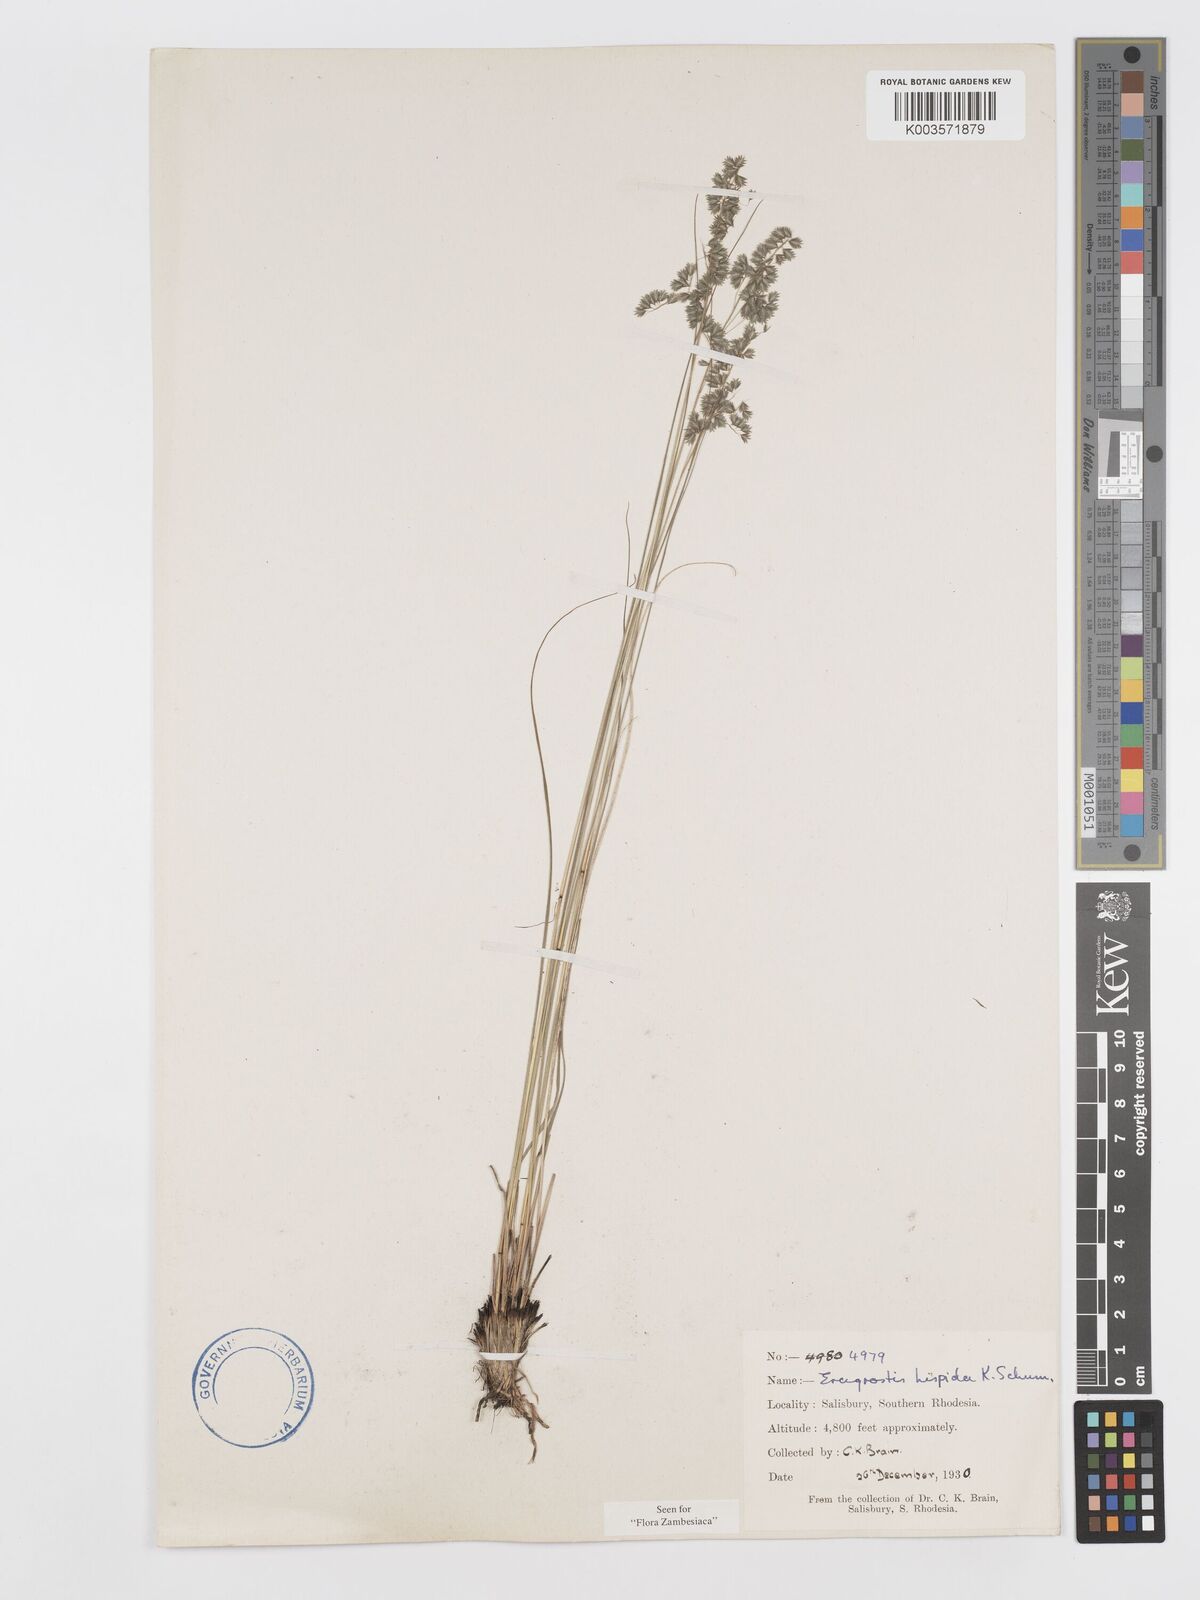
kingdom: Plantae
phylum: Tracheophyta
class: Liliopsida
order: Poales
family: Poaceae
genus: Eragrostis
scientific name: Eragrostis hispida
